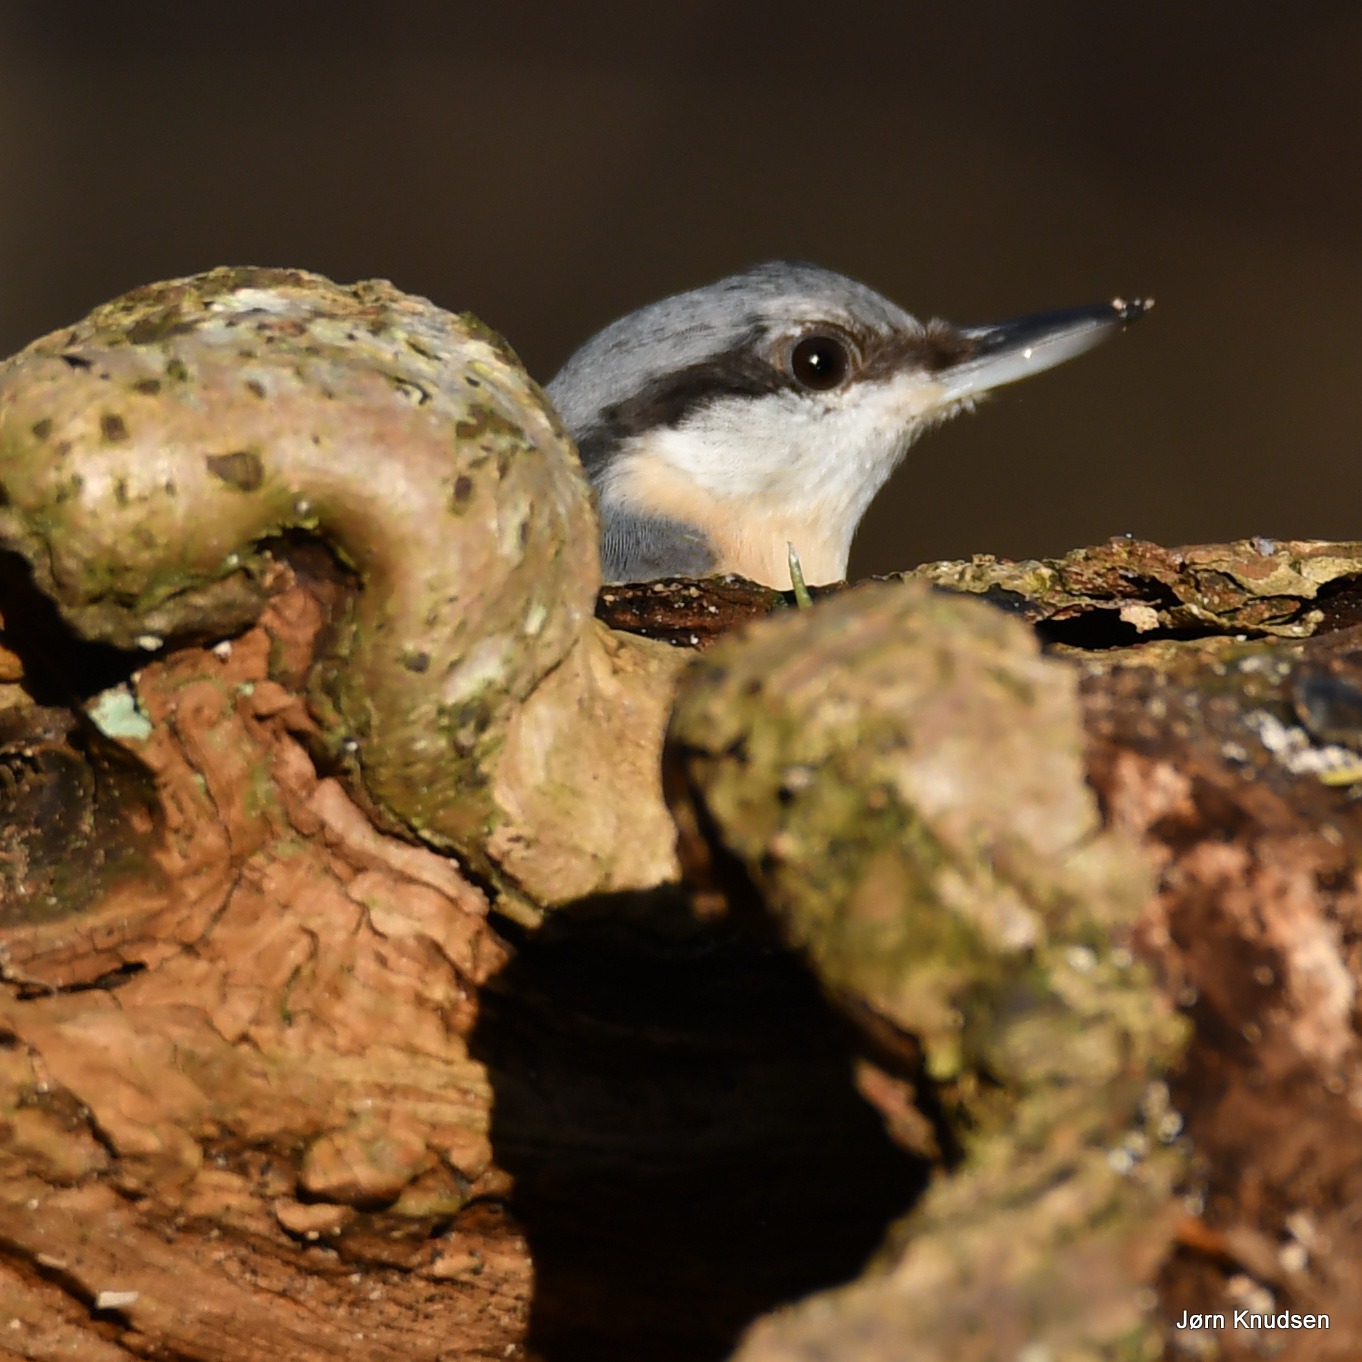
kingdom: Animalia
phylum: Chordata
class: Aves
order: Passeriformes
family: Sittidae
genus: Sitta
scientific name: Sitta europaea
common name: Spætmejse
